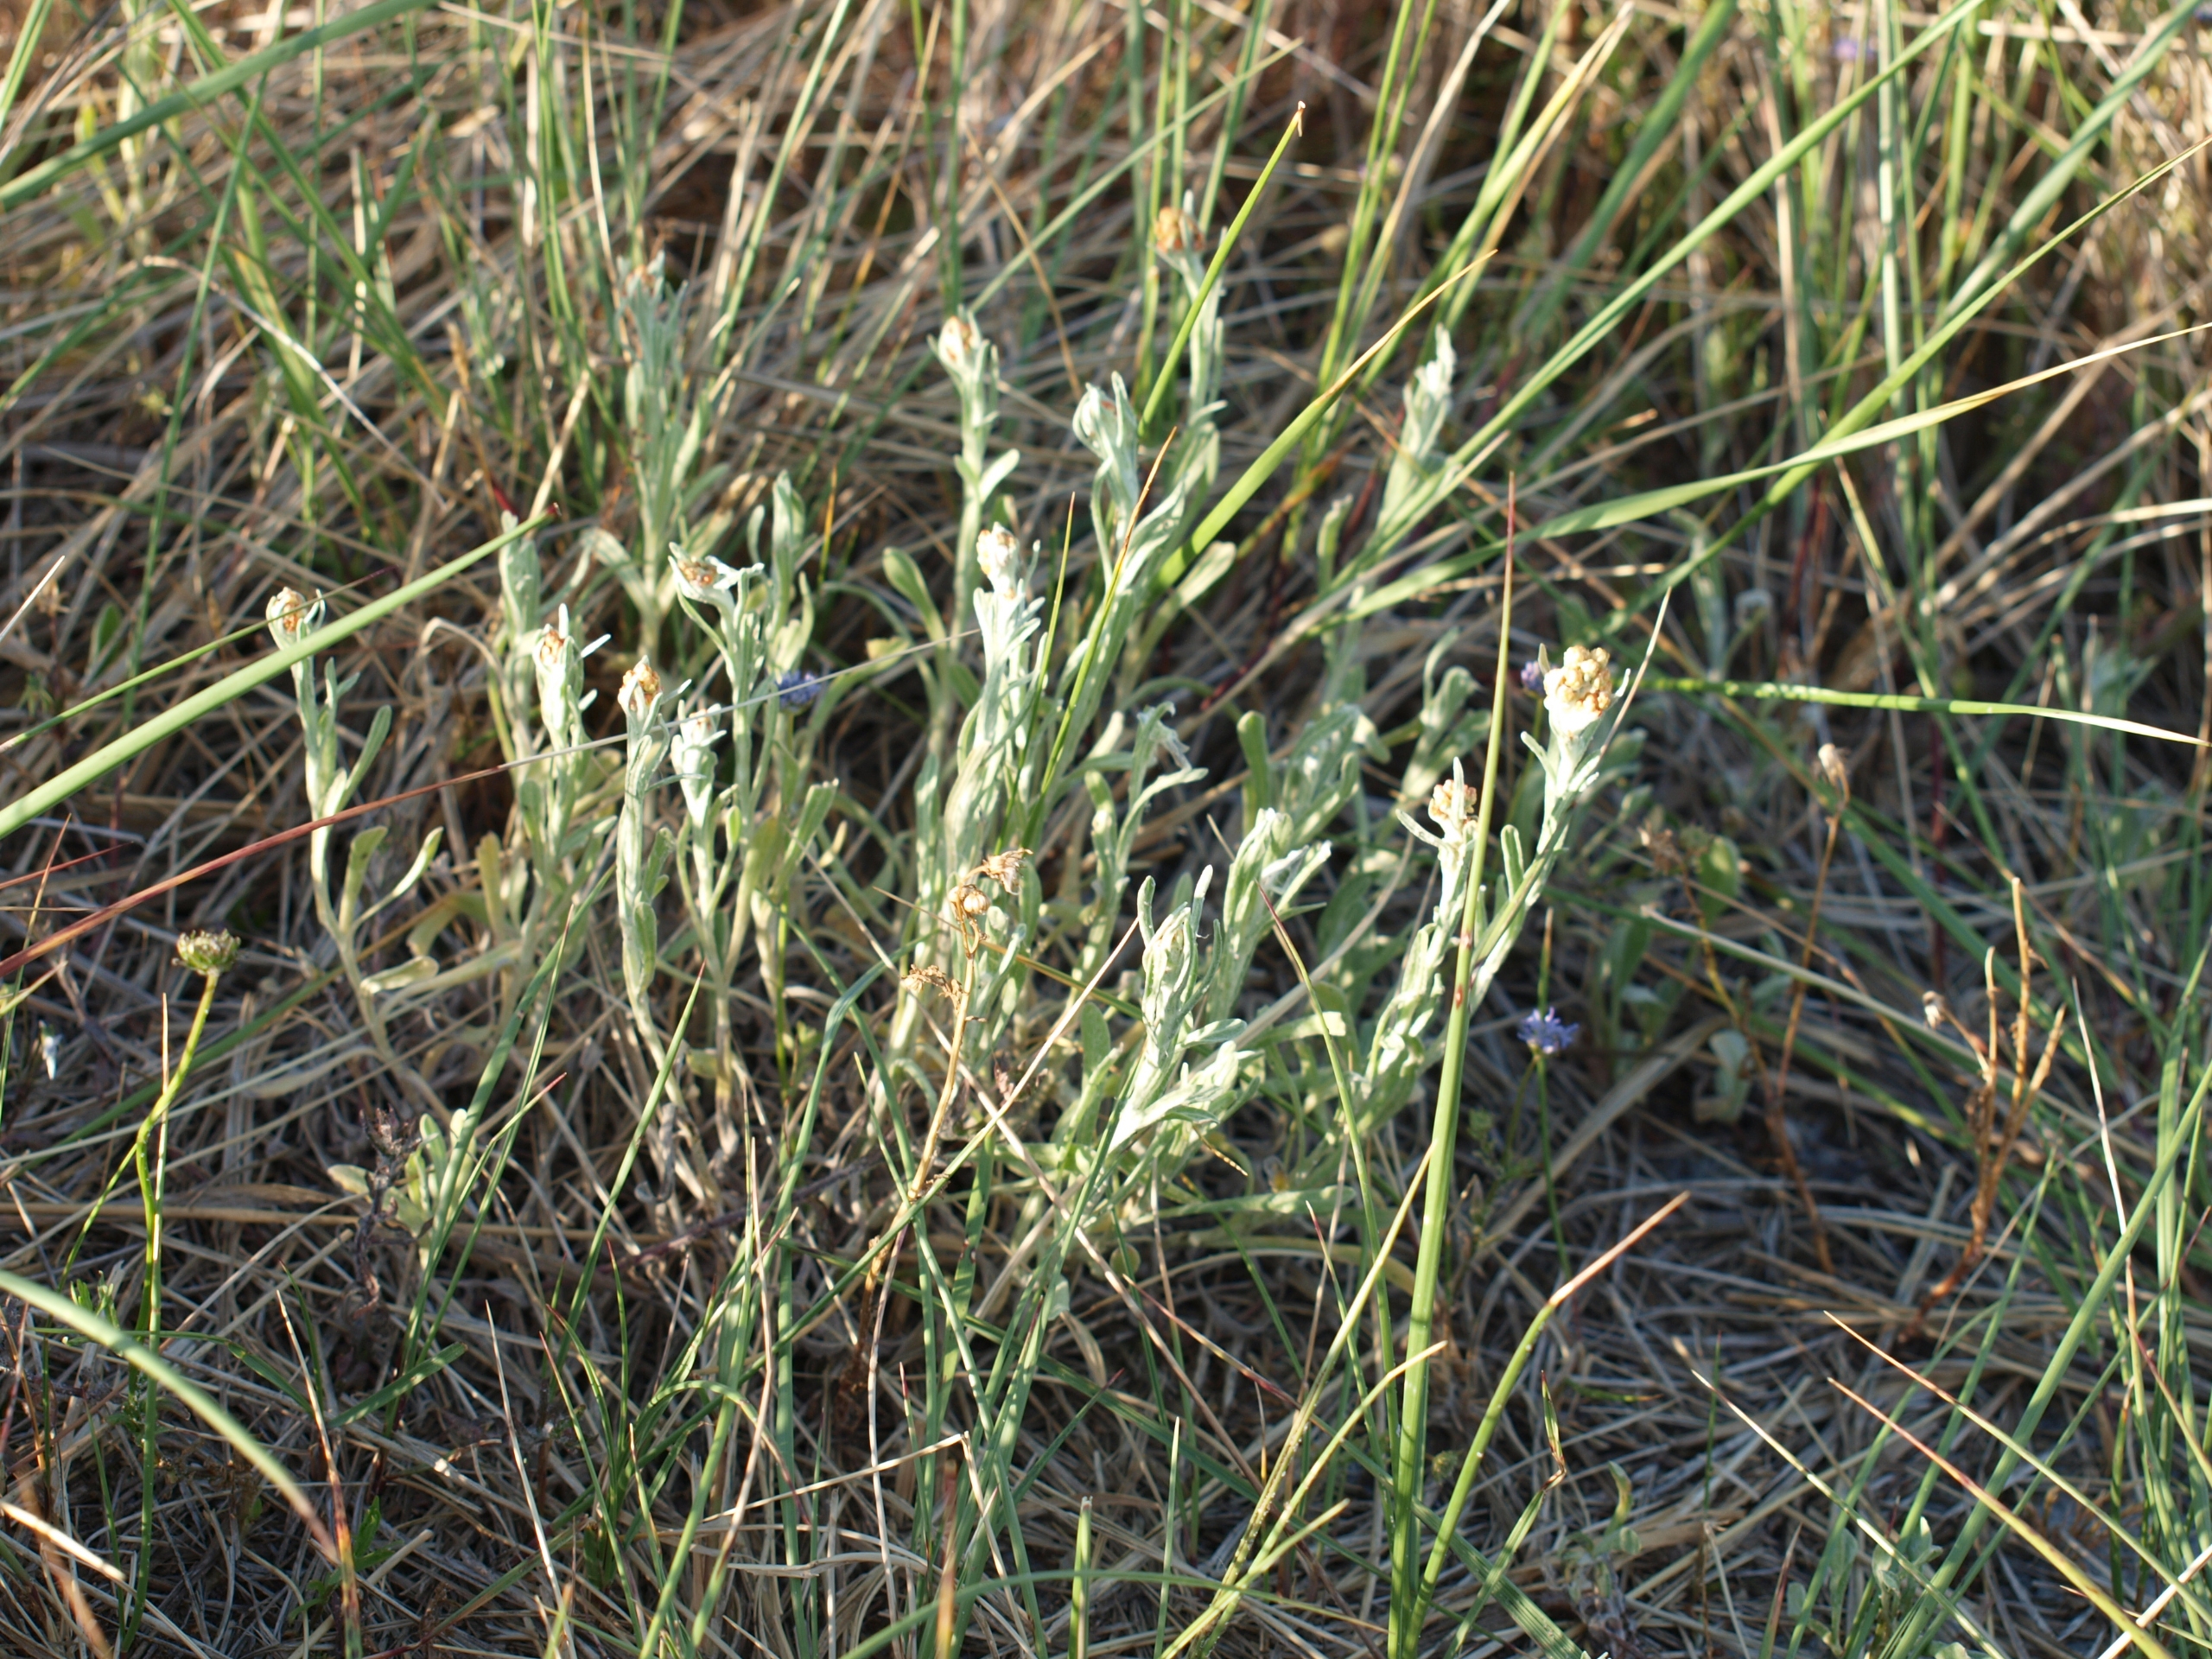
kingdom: Plantae
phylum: Tracheophyta
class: Magnoliopsida
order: Asterales
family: Asteraceae
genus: Helichrysum
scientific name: Helichrysum arenarium
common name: Gul evighedsblomst
